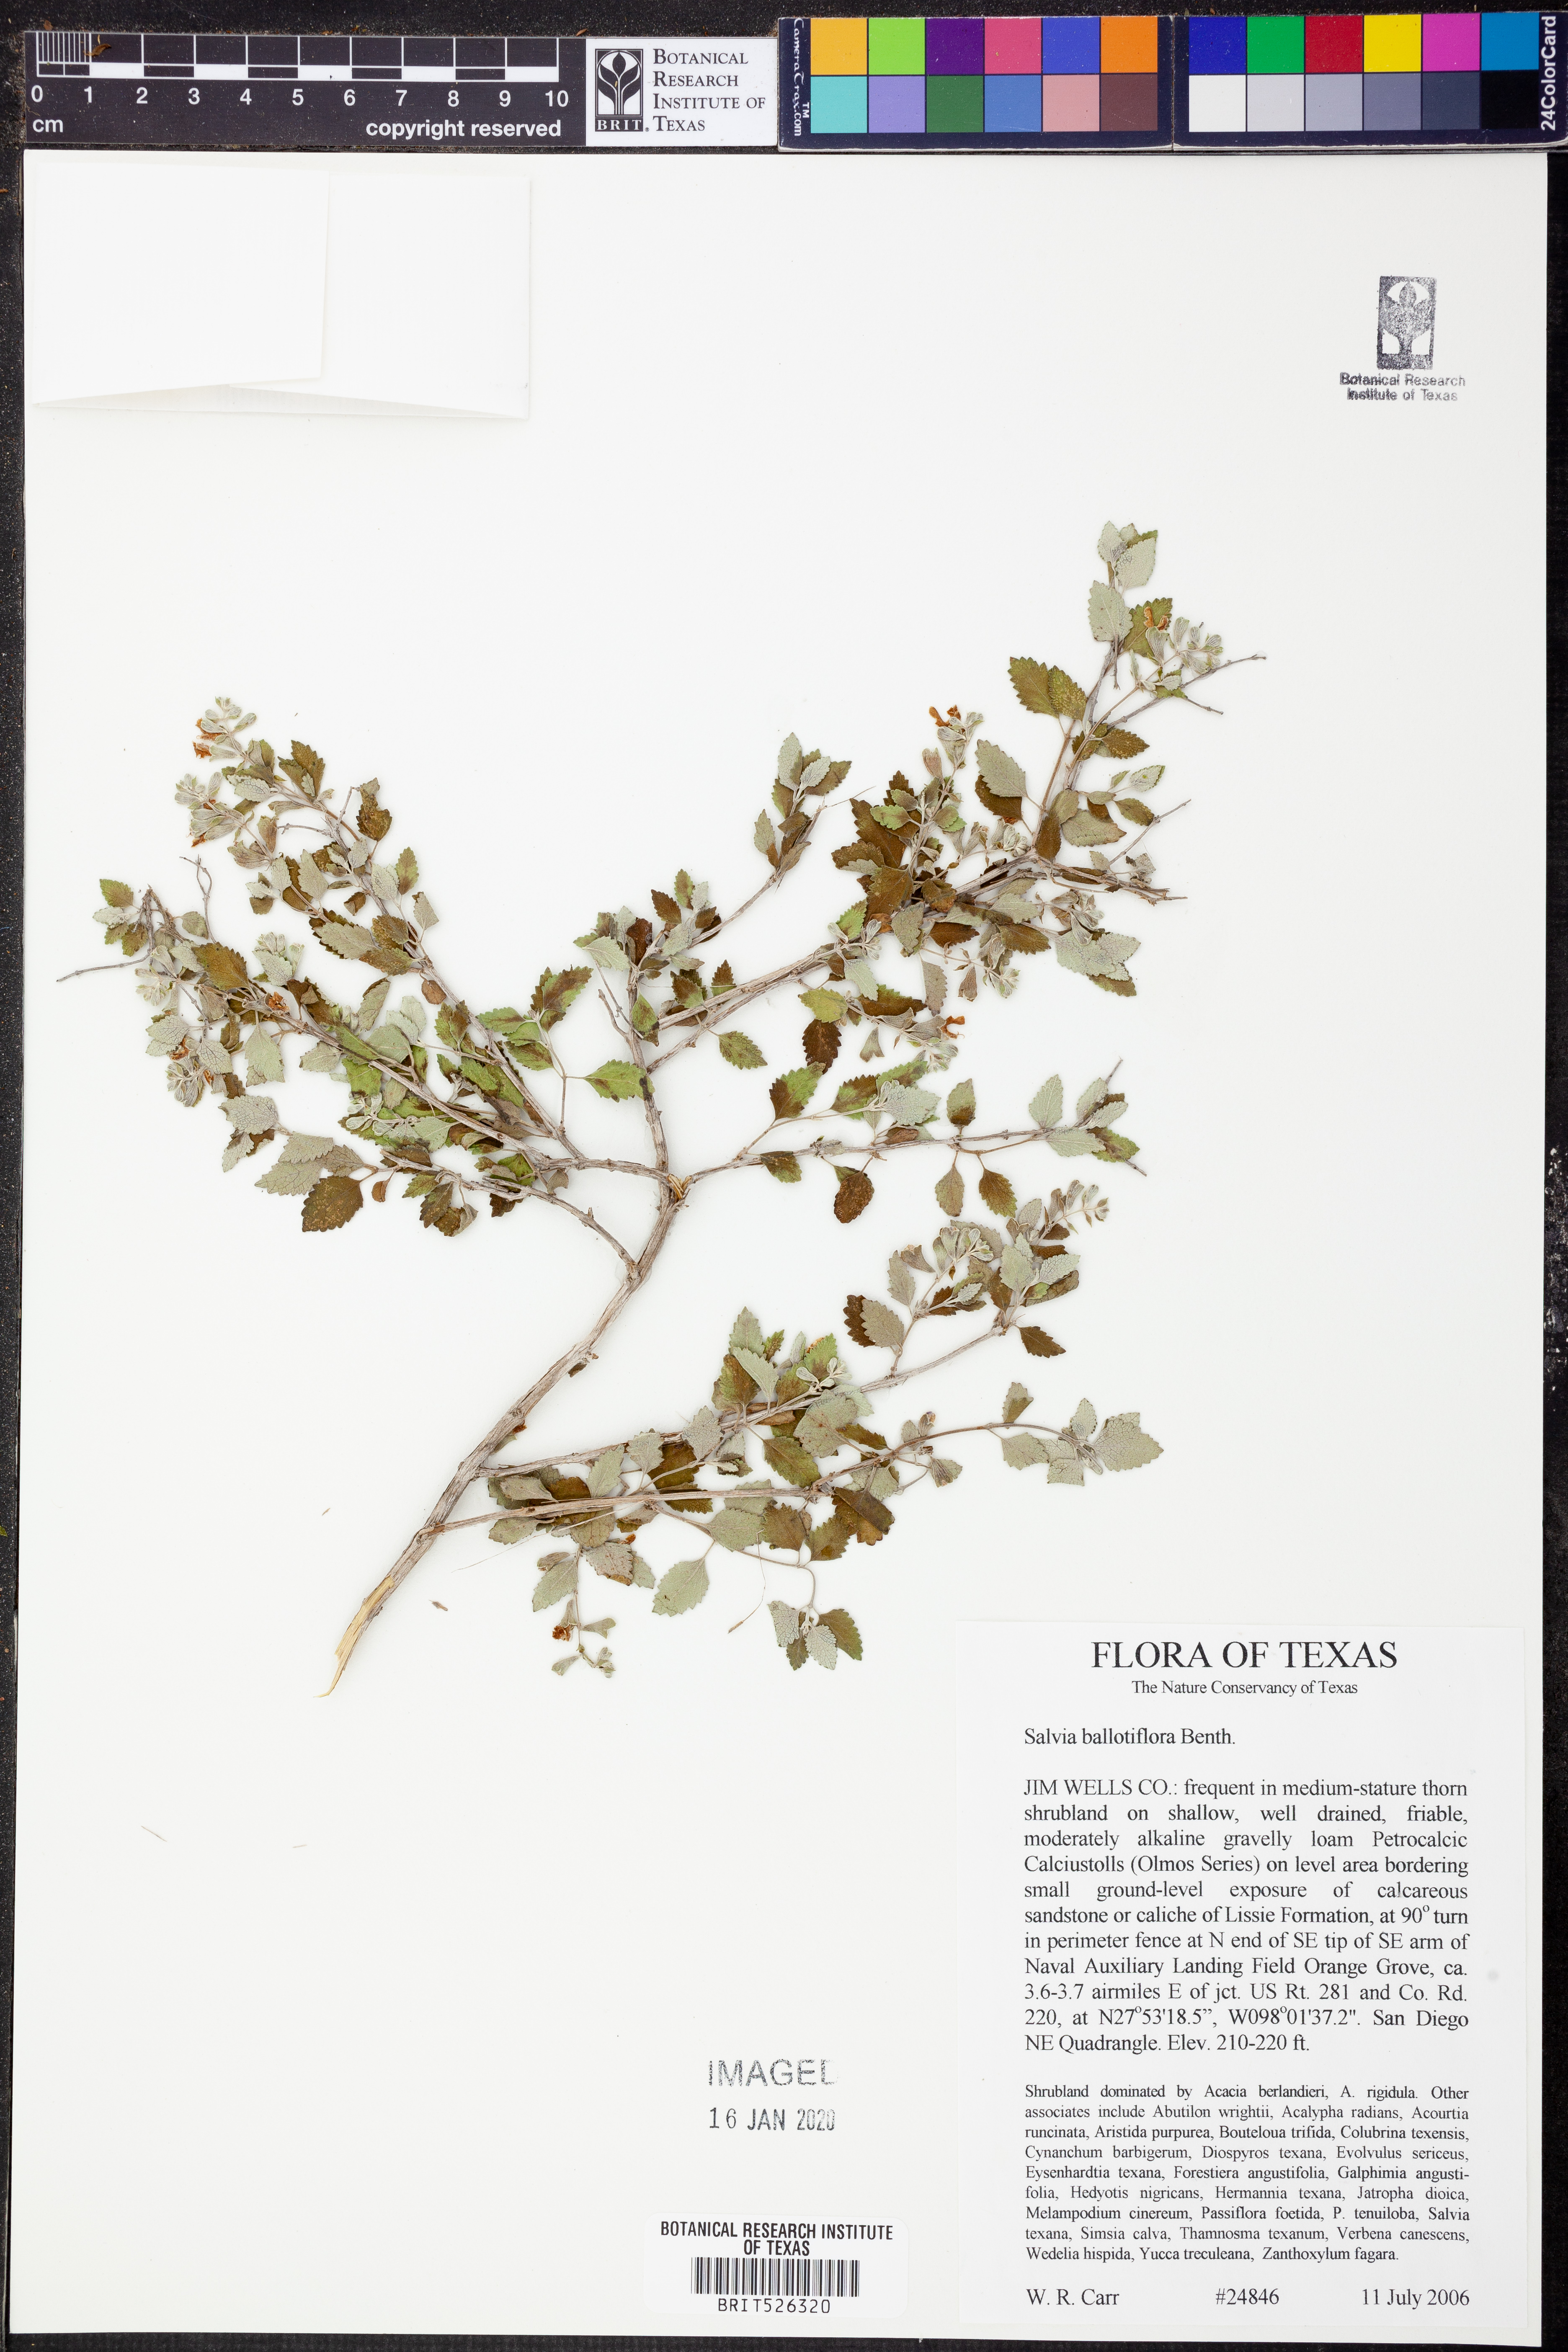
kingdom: Plantae
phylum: Tracheophyta
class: Magnoliopsida
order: Lamiales
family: Lamiaceae
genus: Salvia
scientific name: Salvia ballotiflora
